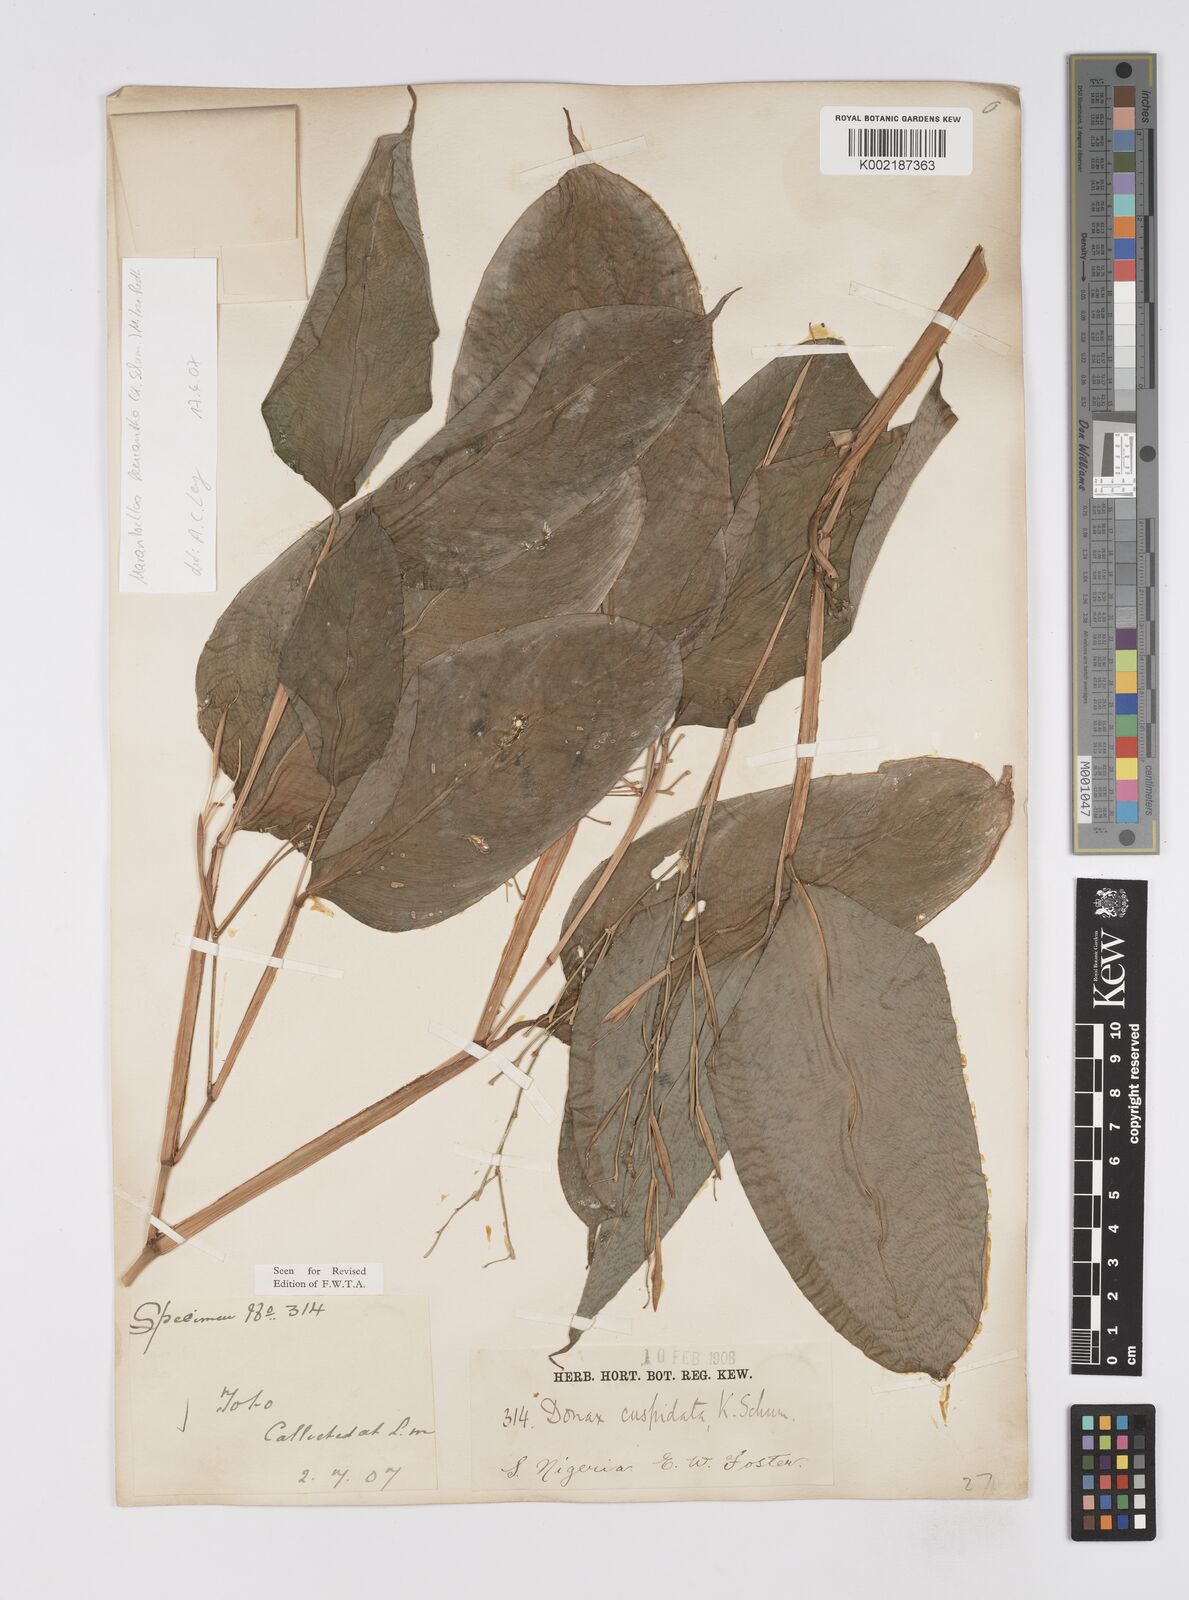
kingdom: Plantae
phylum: Tracheophyta
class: Liliopsida
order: Zingiberales
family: Marantaceae
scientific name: Marantaceae
